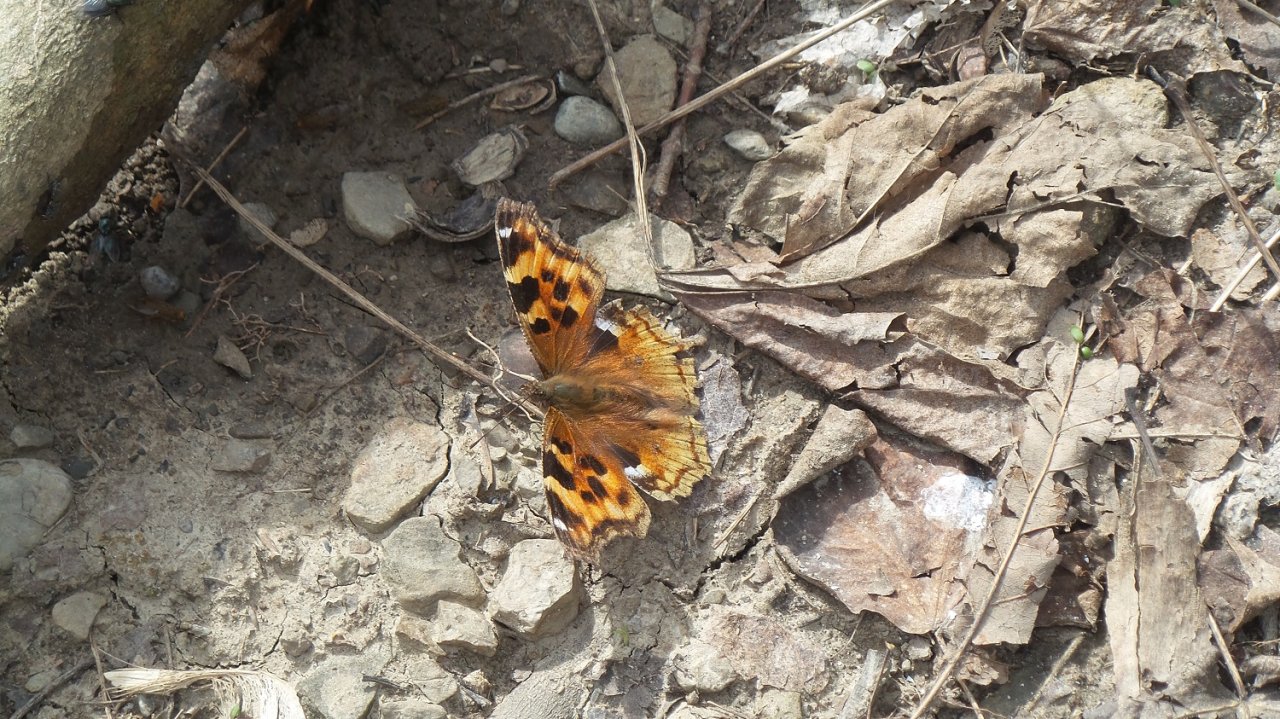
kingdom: Animalia
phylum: Arthropoda
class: Insecta
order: Lepidoptera
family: Nymphalidae
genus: Polygonia
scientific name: Polygonia vaualbum
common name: Compton Tortoiseshell
